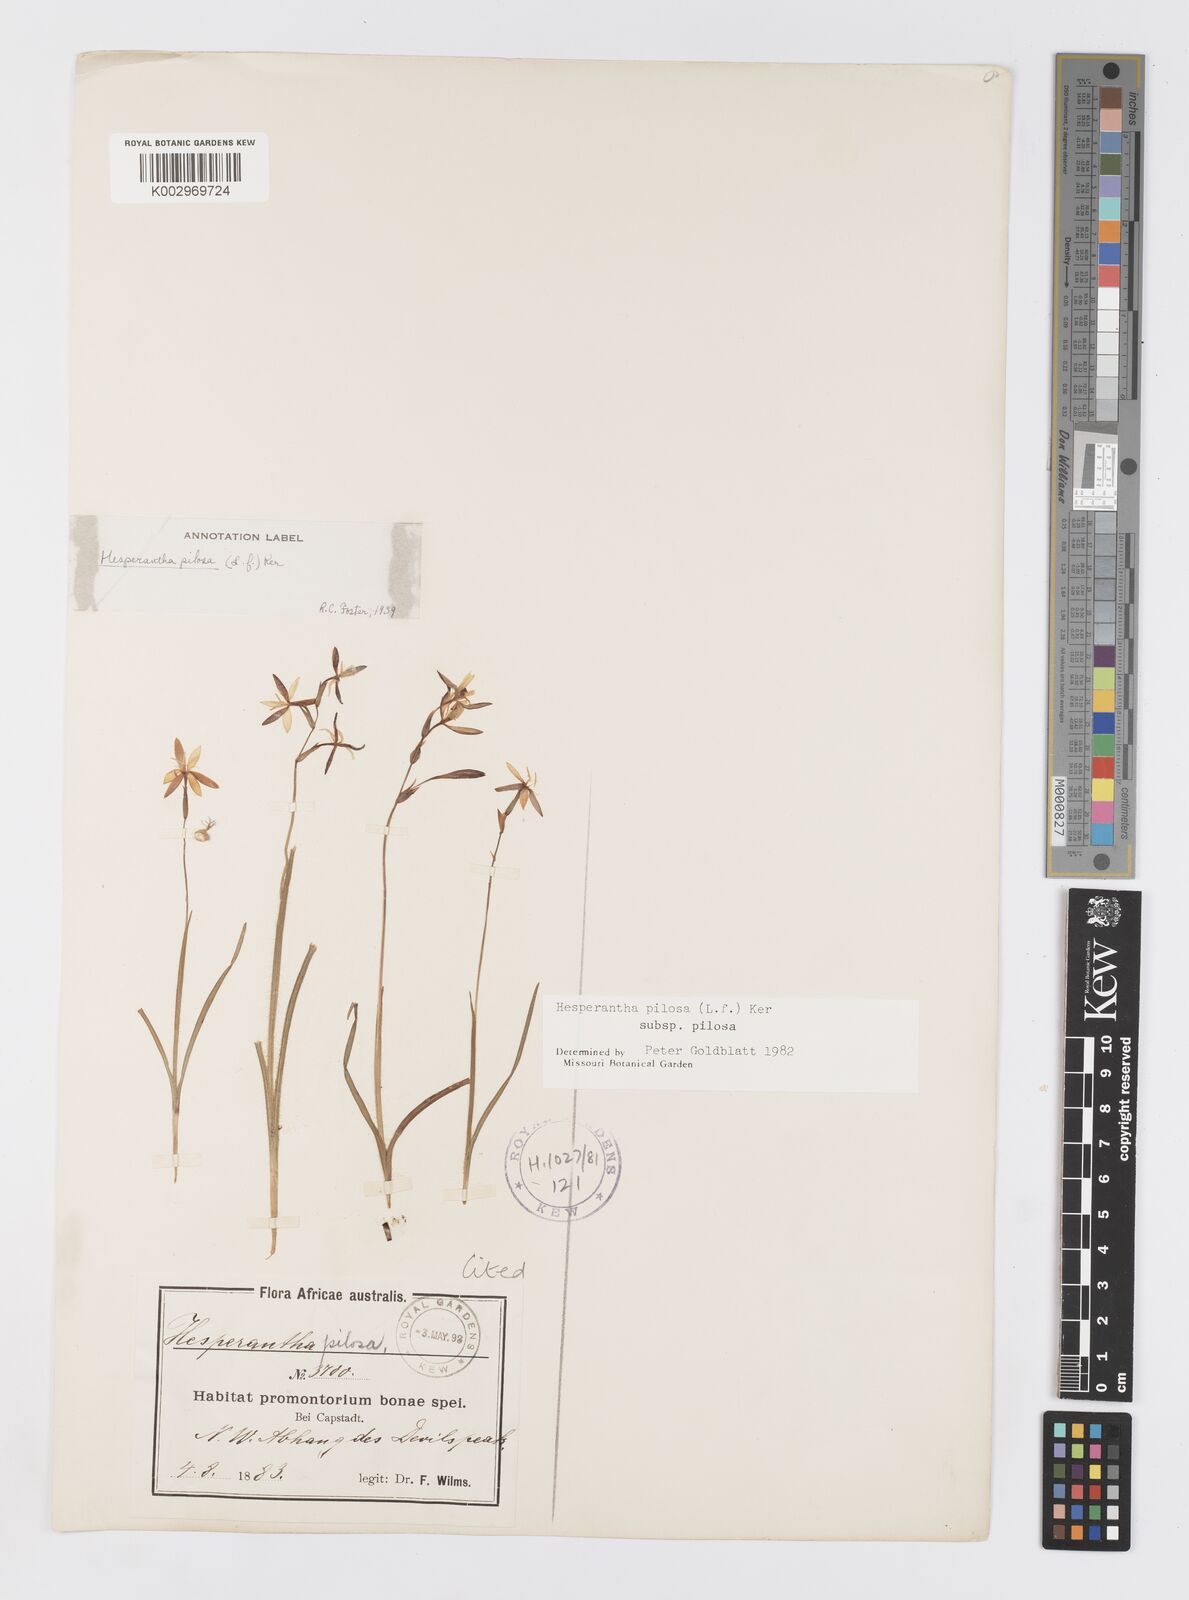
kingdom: Plantae
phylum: Tracheophyta
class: Liliopsida
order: Asparagales
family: Iridaceae
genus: Hesperantha
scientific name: Hesperantha pilosa
